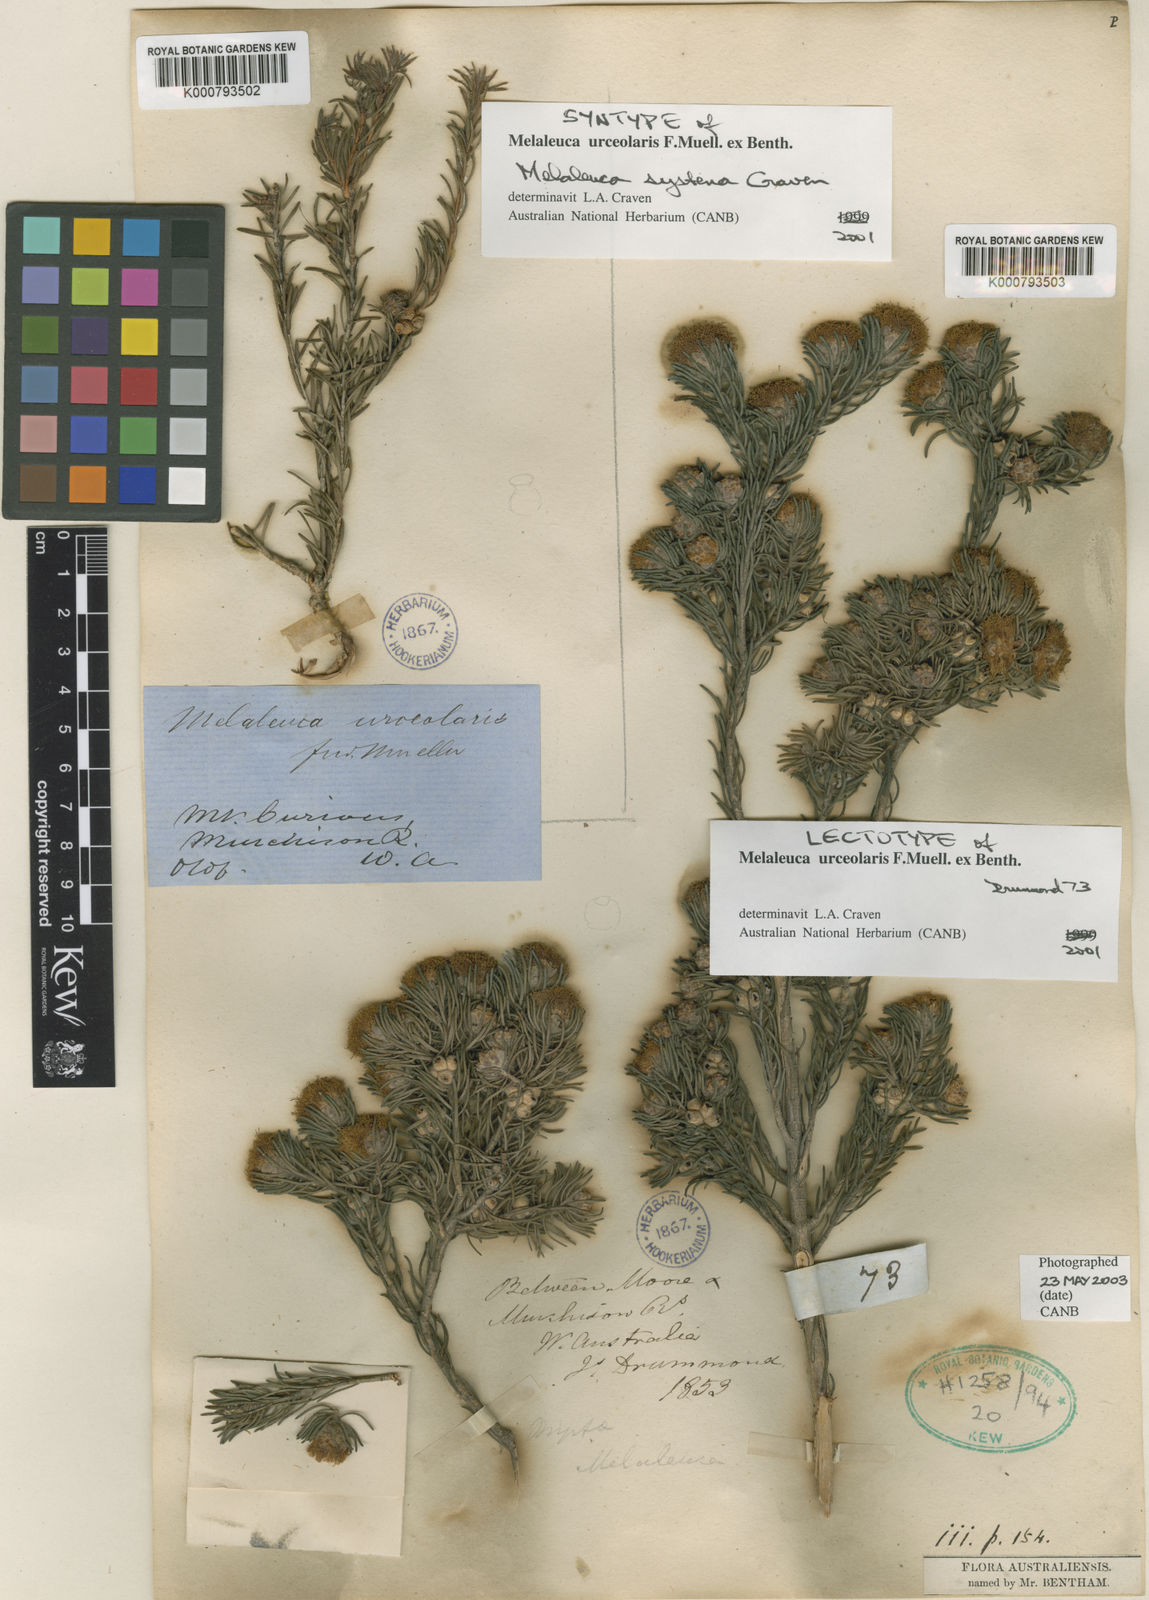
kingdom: Plantae
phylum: Tracheophyta
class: Magnoliopsida
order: Myrtales
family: Myrtaceae
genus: Melaleuca
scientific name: Melaleuca urceolaris
